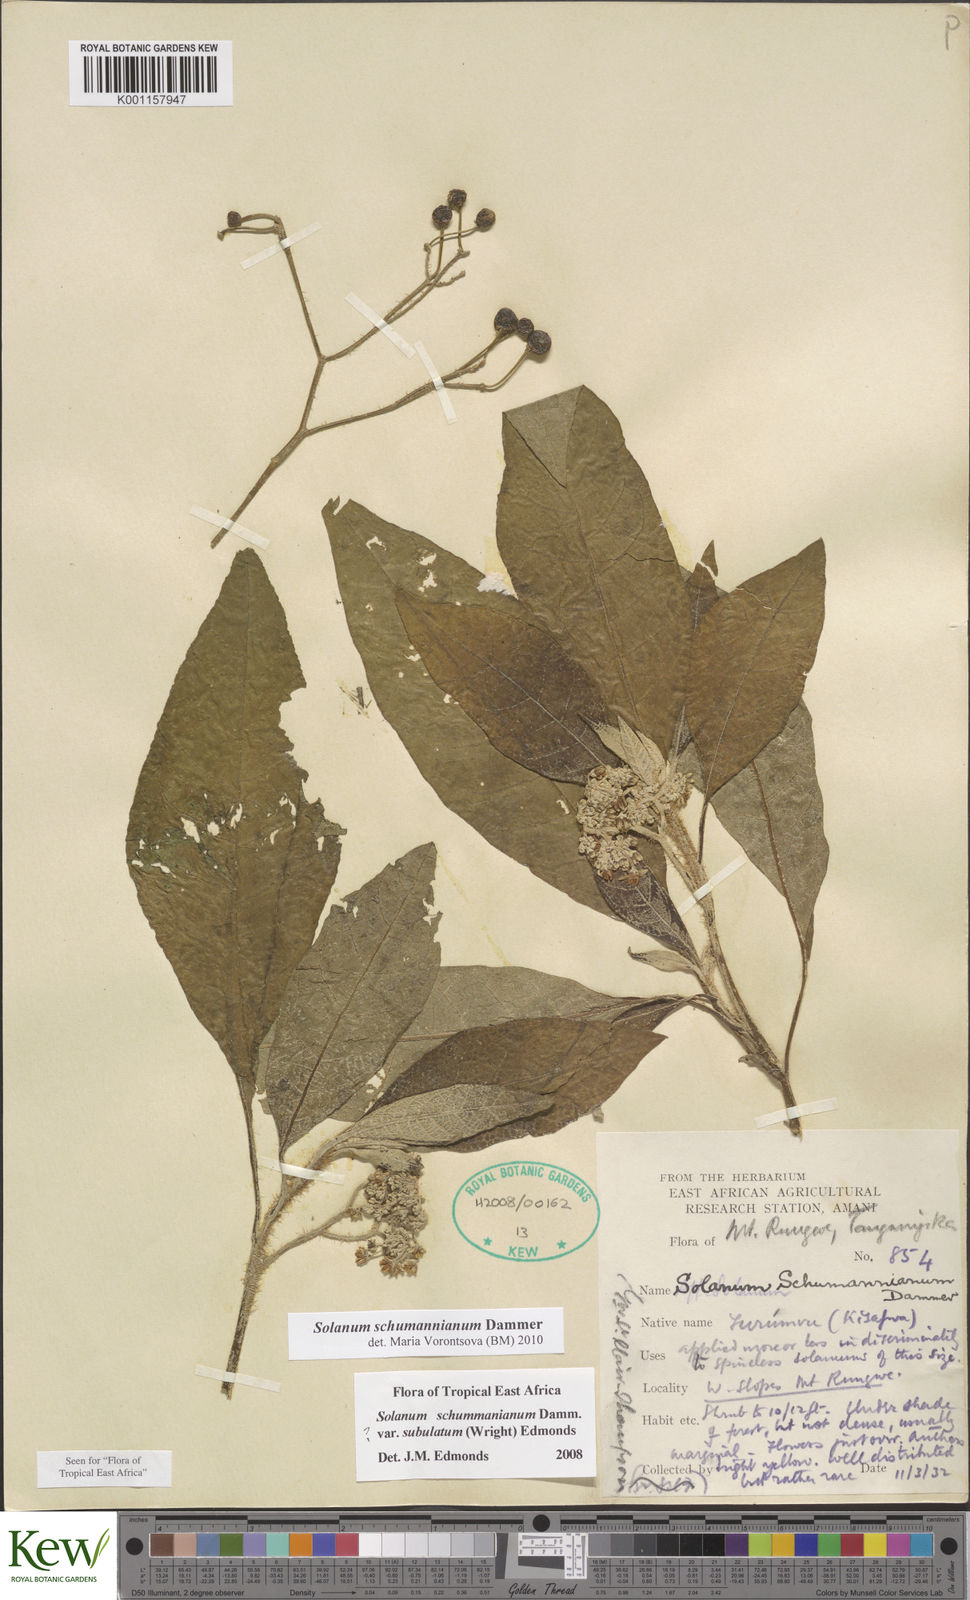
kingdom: Plantae
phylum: Tracheophyta
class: Magnoliopsida
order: Solanales
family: Solanaceae
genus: Solanum
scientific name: Solanum schumannianum
